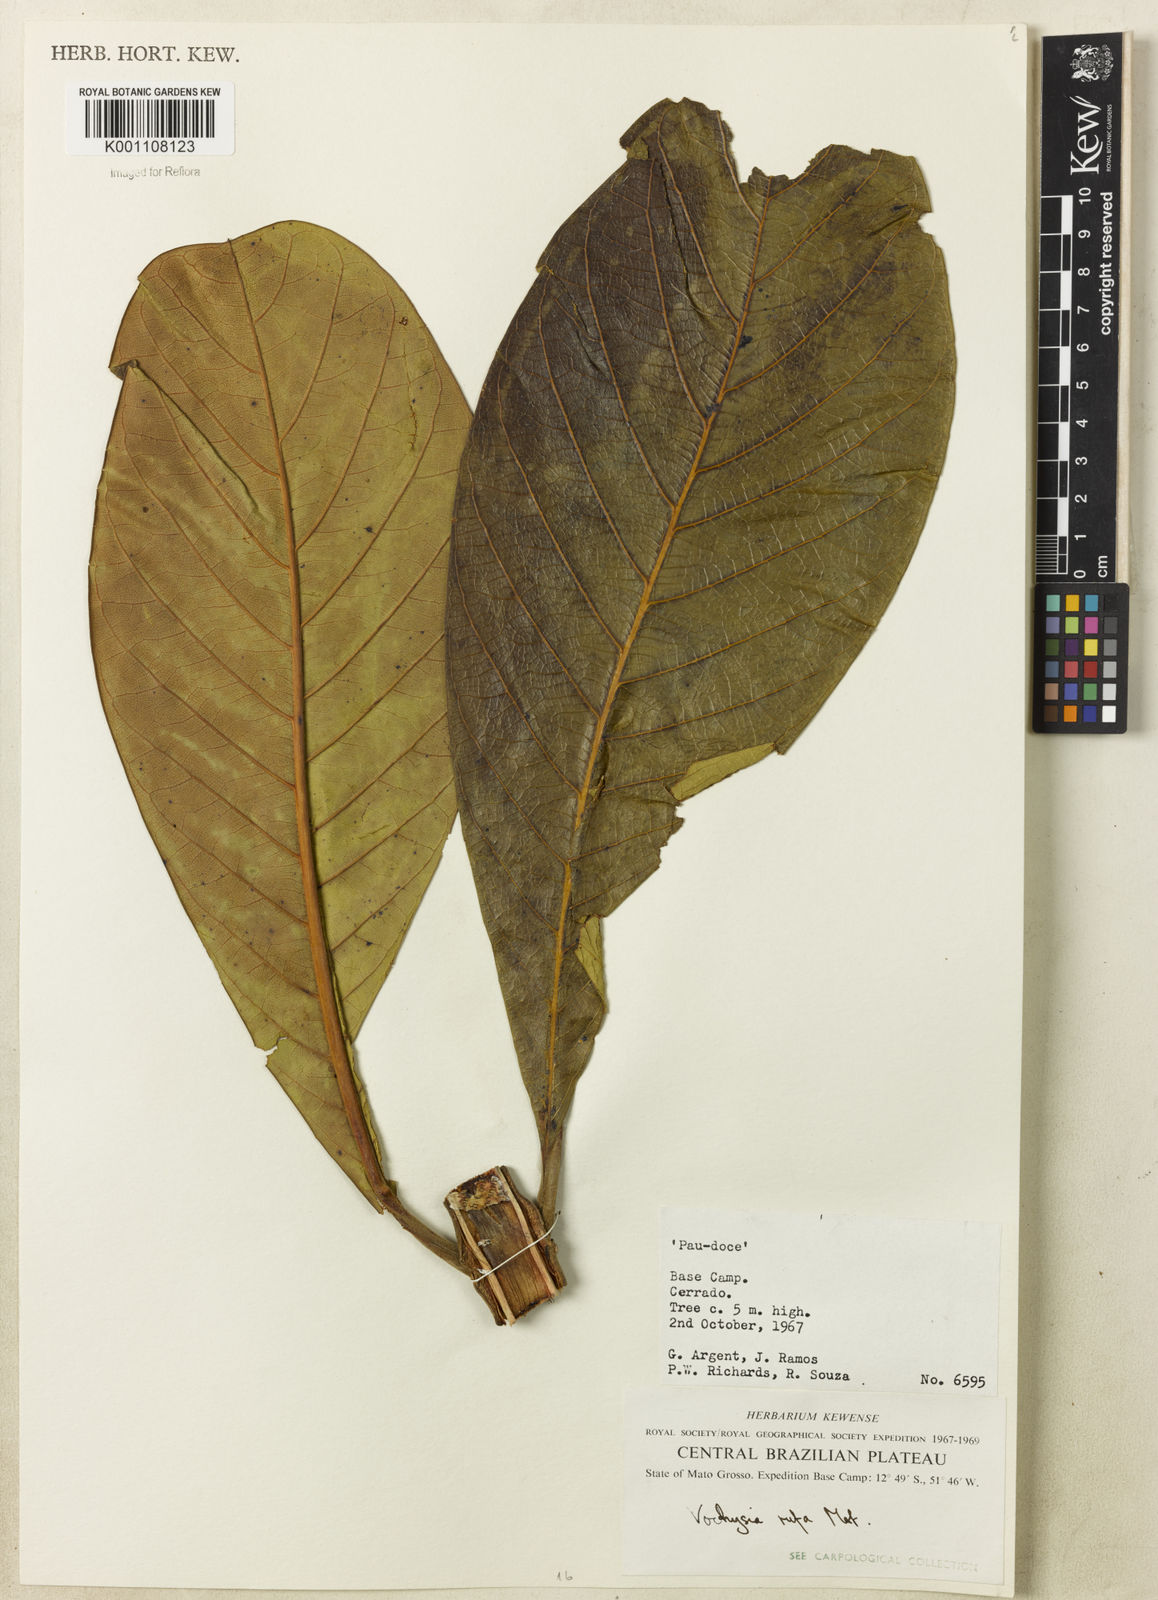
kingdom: Plantae
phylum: Tracheophyta
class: Magnoliopsida
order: Myrtales
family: Vochysiaceae
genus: Vochysia
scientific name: Vochysia rufa
